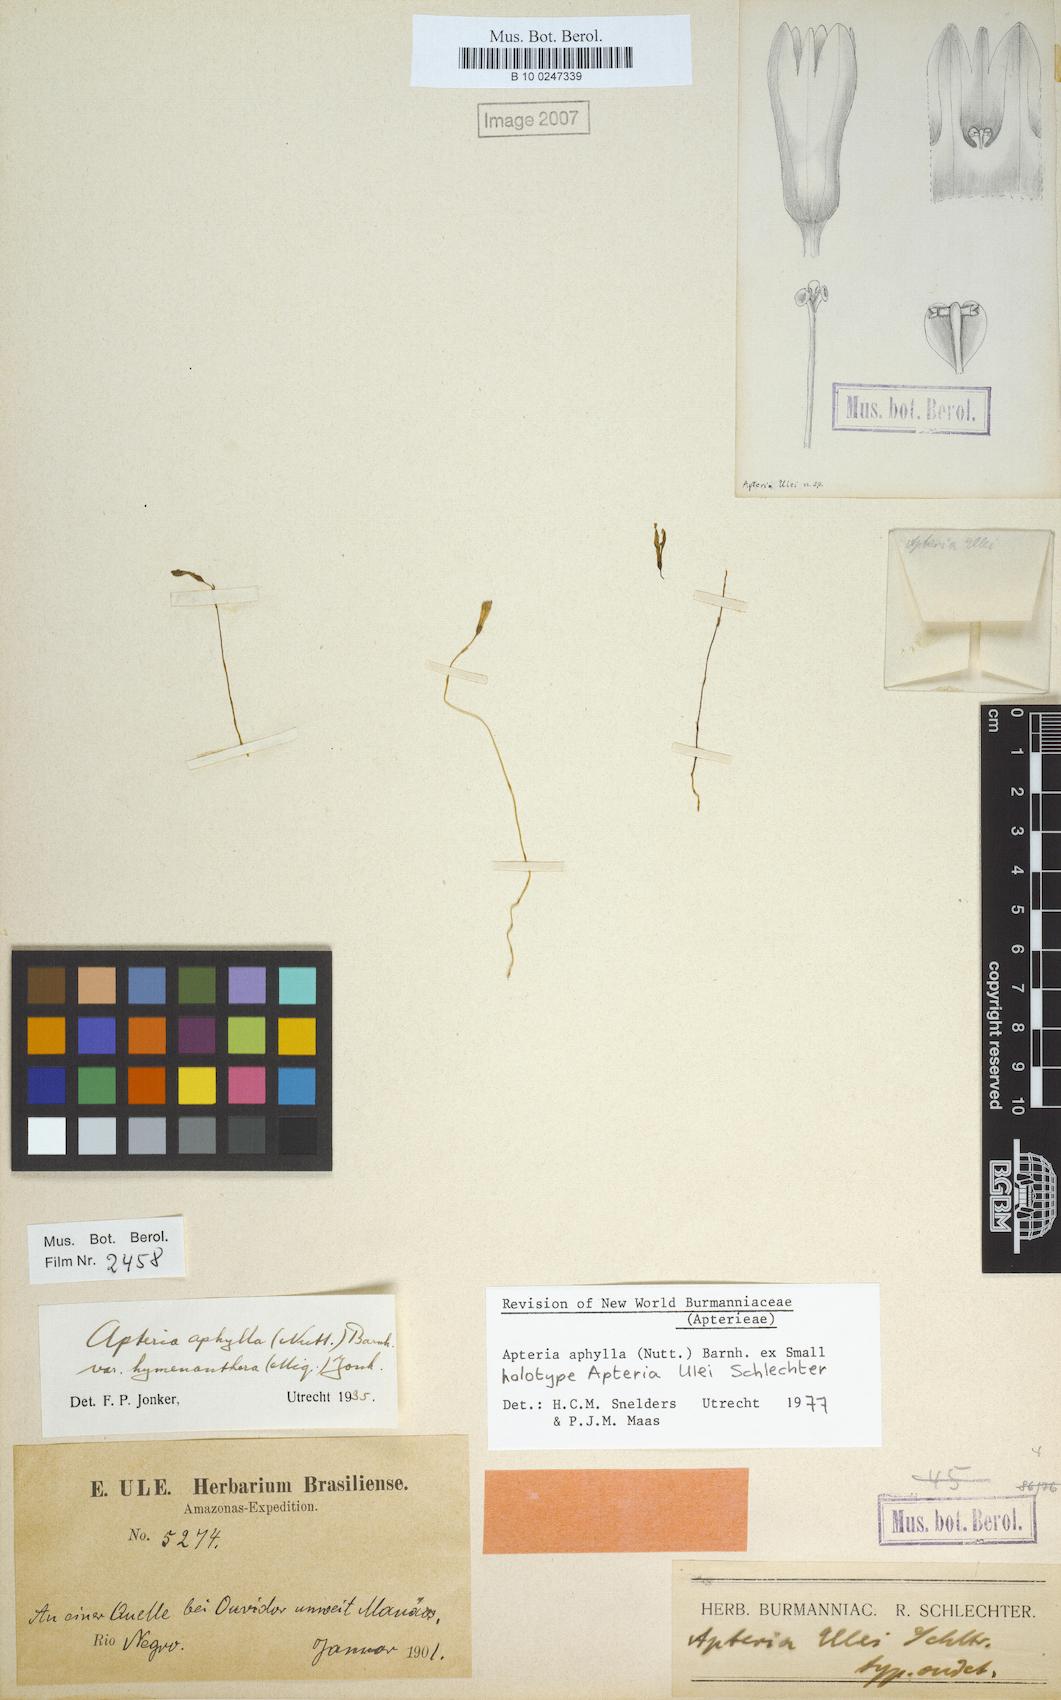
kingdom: Plantae
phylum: Tracheophyta
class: Liliopsida
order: Dioscoreales
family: Burmanniaceae
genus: Apteria
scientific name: Apteria aphylla
